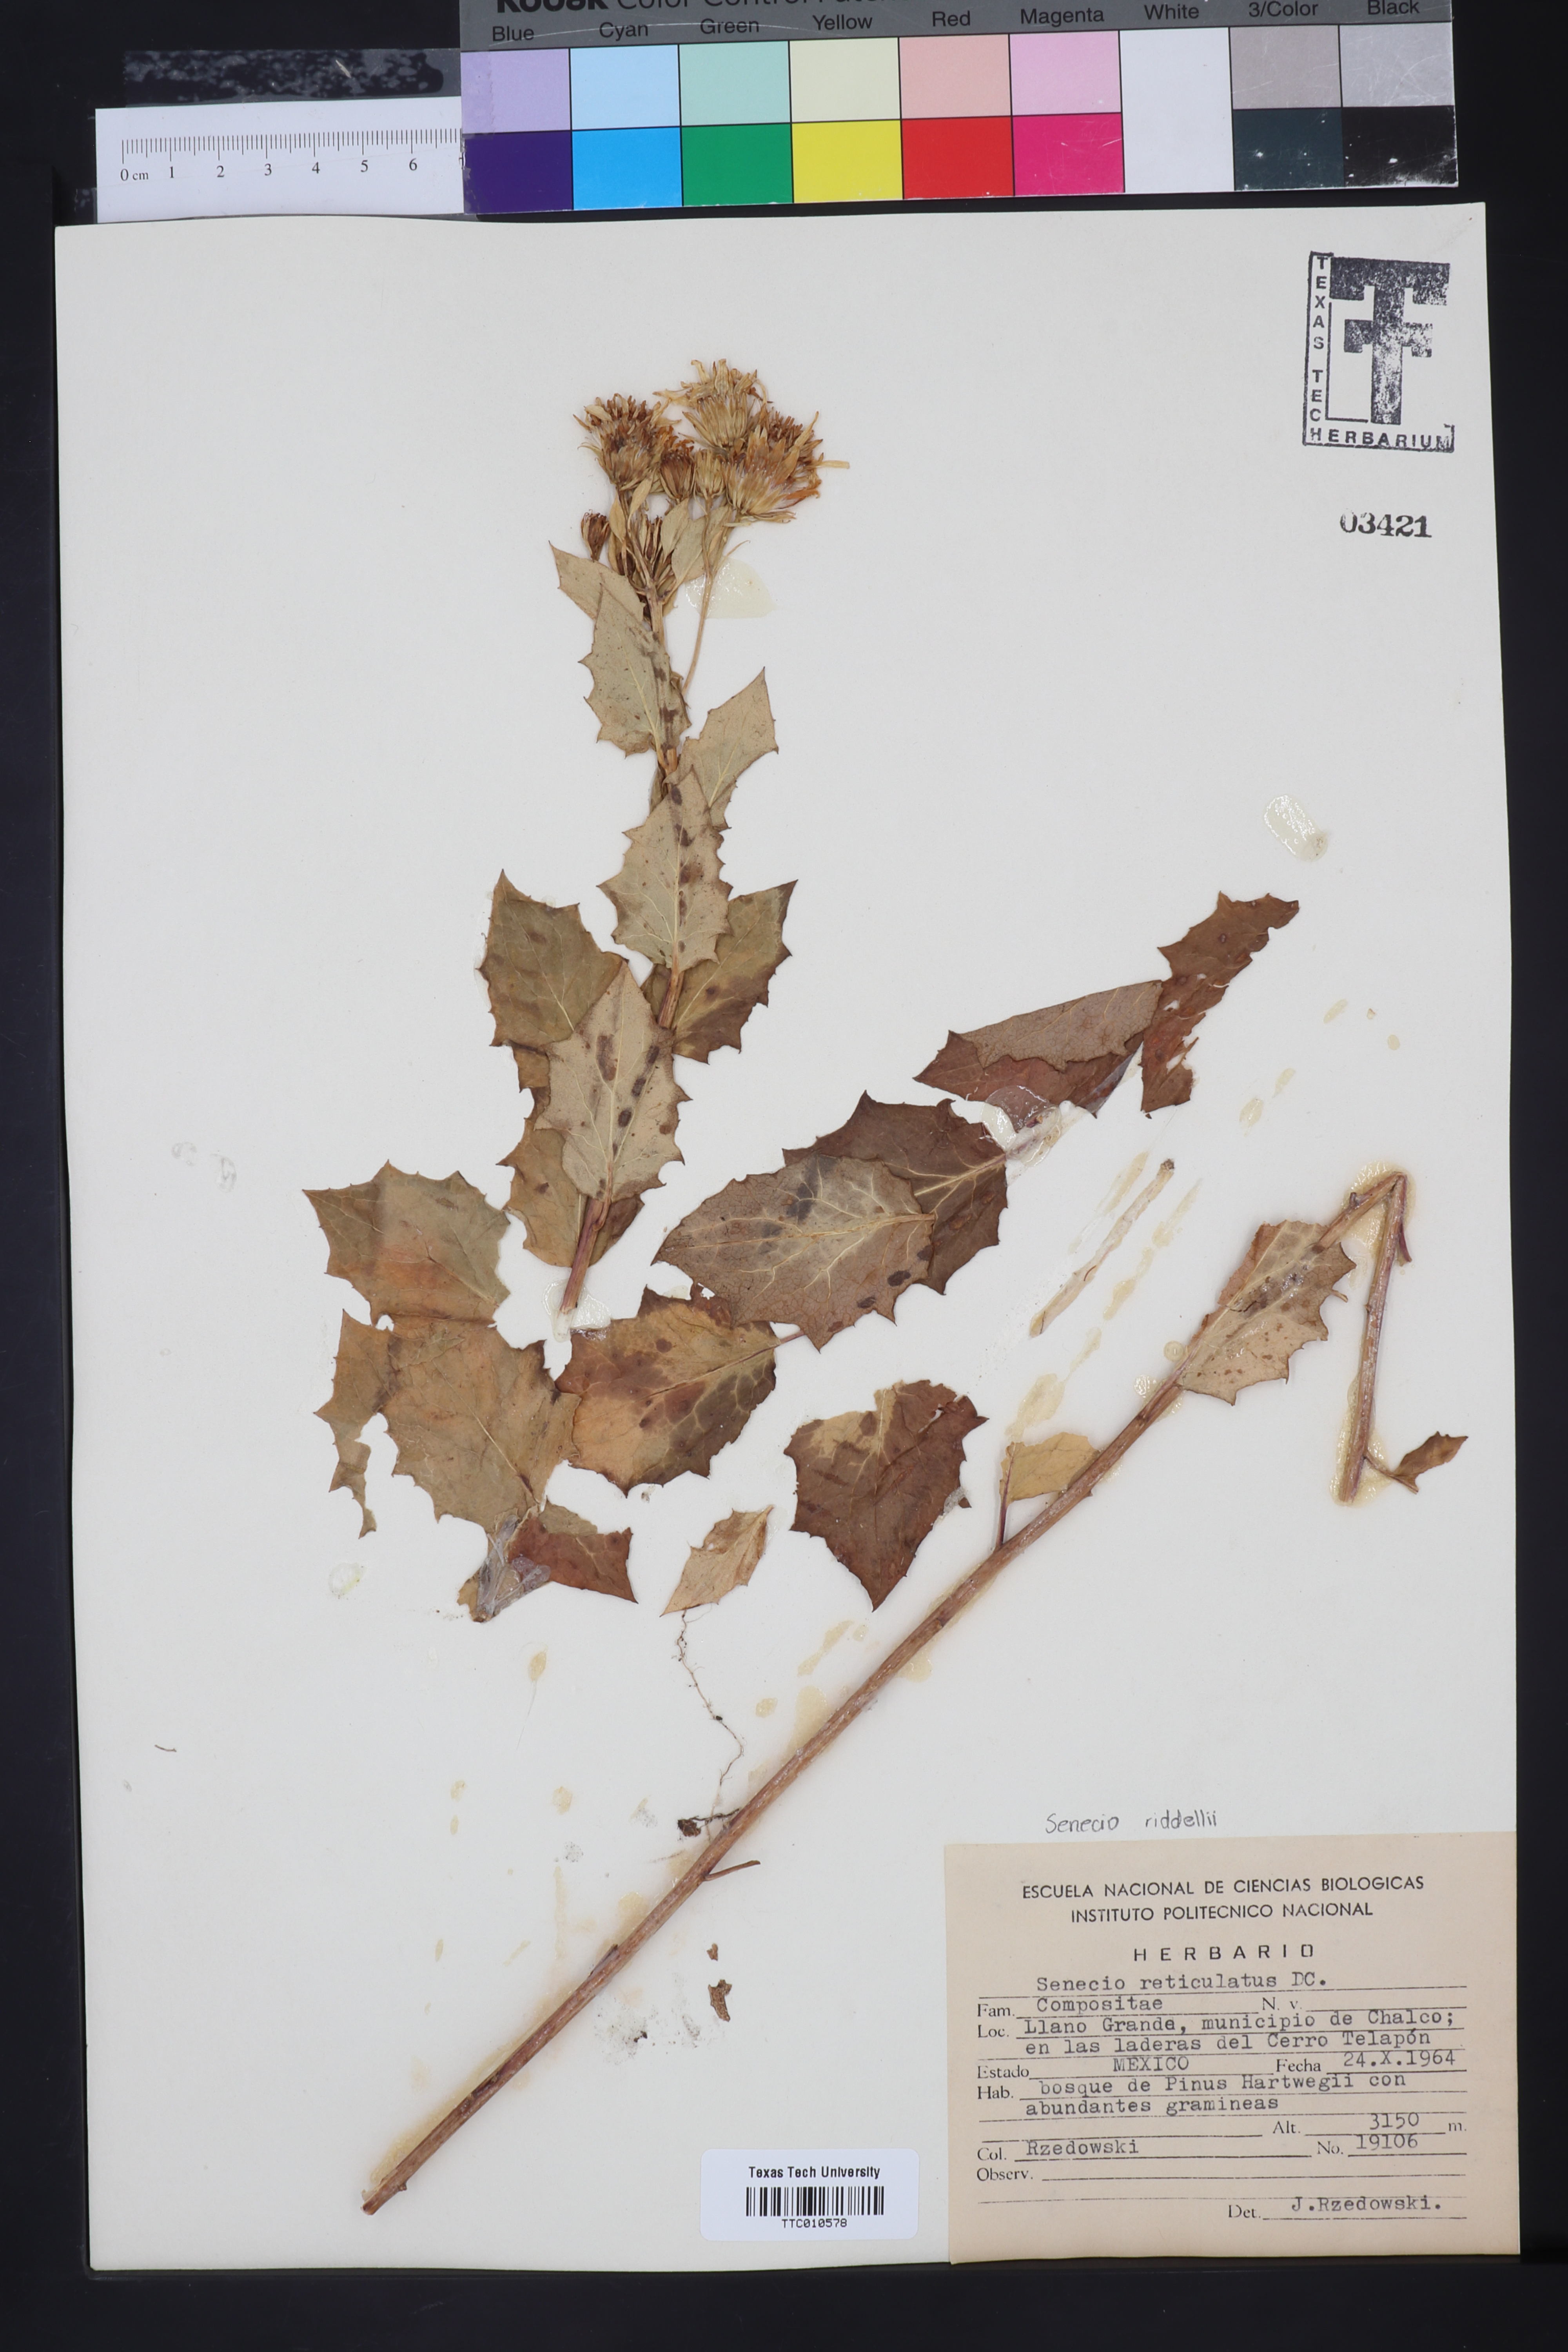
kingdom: Plantae
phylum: Tracheophyta
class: Magnoliopsida
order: Asterales
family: Asteraceae
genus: Roldana
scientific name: Roldana reticulata
